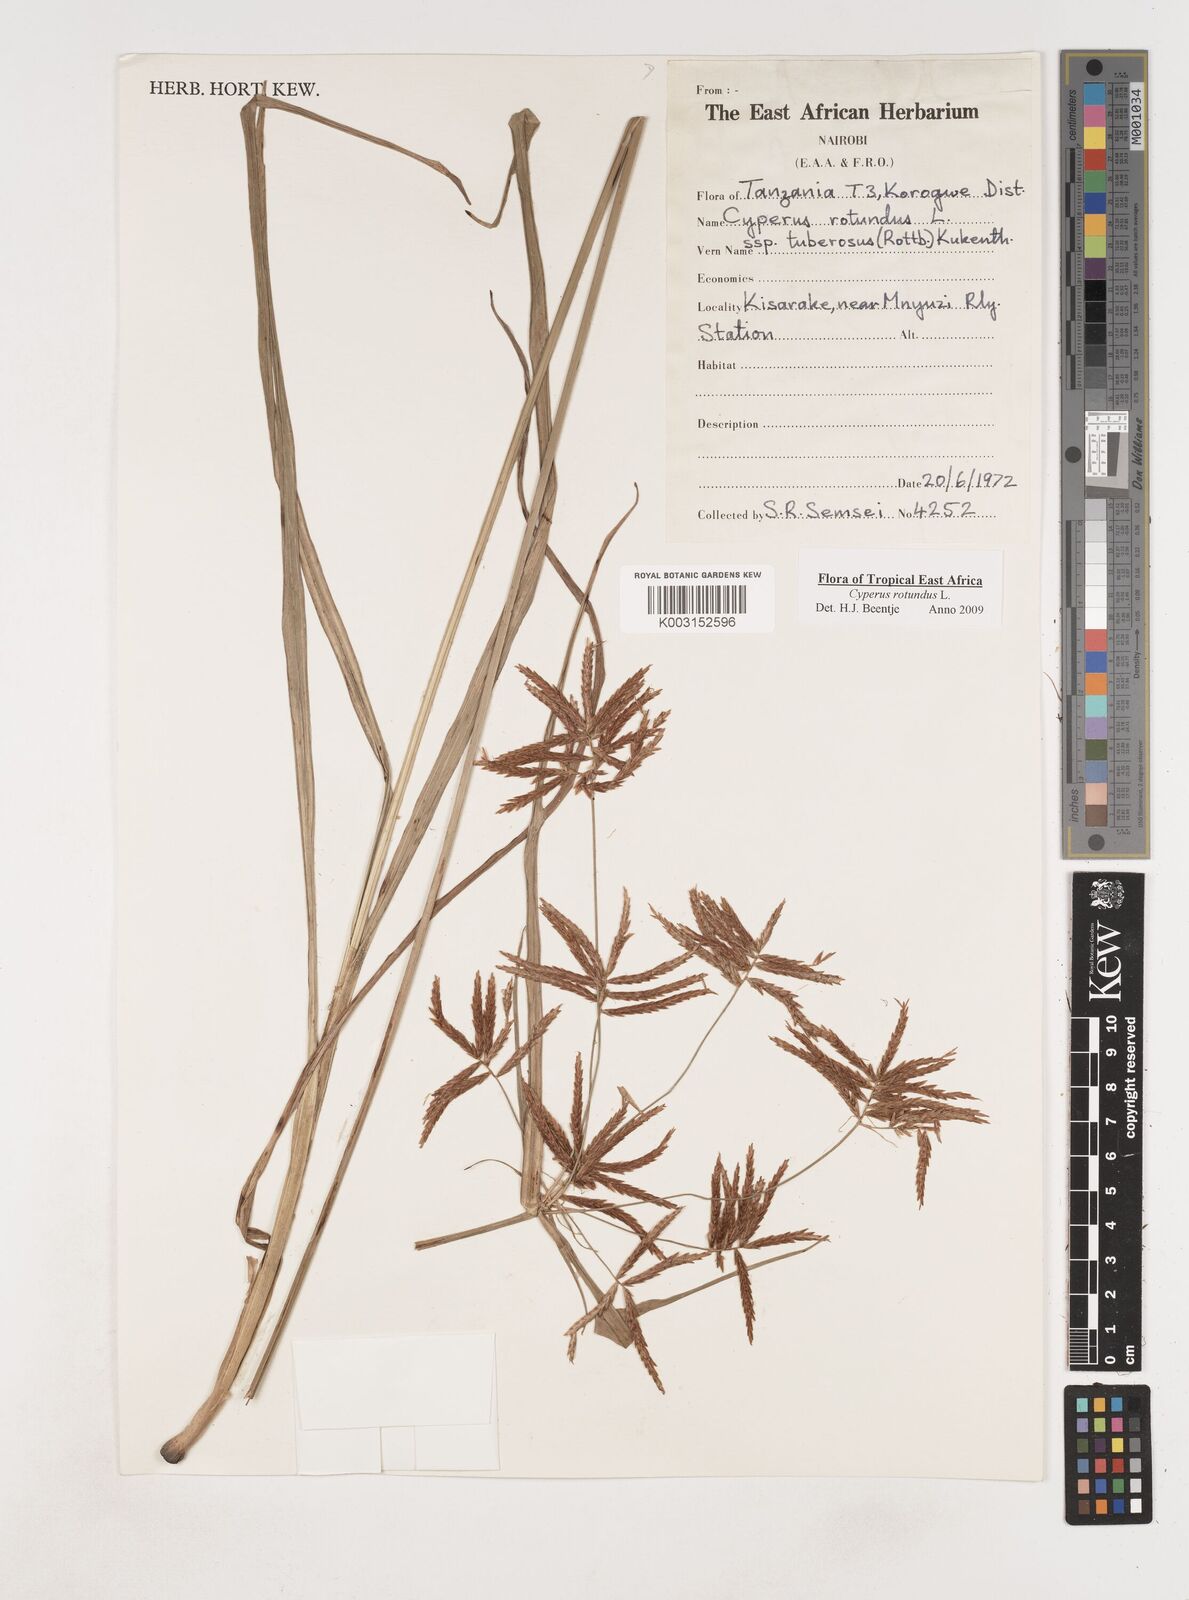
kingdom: Plantae
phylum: Tracheophyta
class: Liliopsida
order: Poales
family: Cyperaceae
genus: Cyperus
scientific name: Cyperus tuberosus
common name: Nut grass
